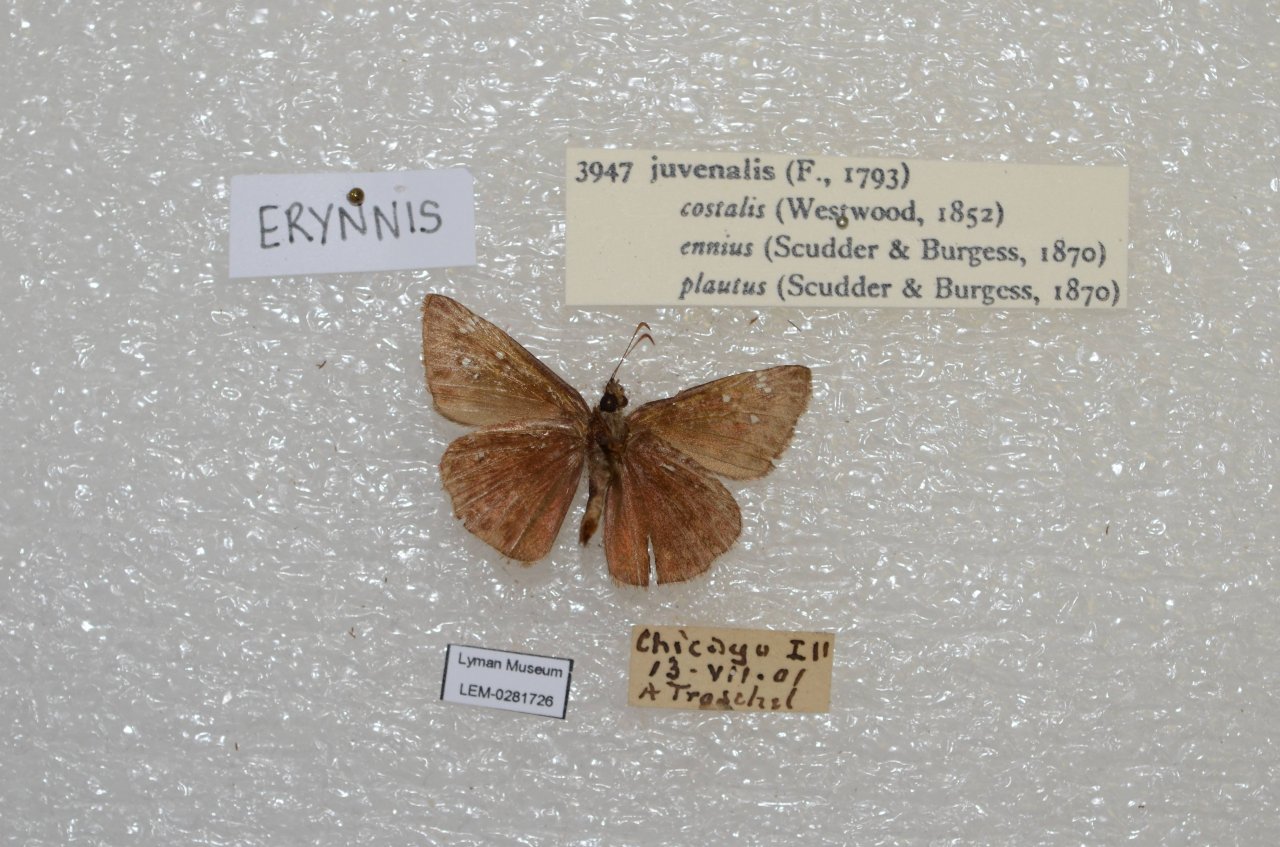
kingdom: Animalia
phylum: Arthropoda
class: Insecta
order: Lepidoptera
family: Hesperiidae
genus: Gesta
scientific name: Gesta
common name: Juvenal's Duskywing
